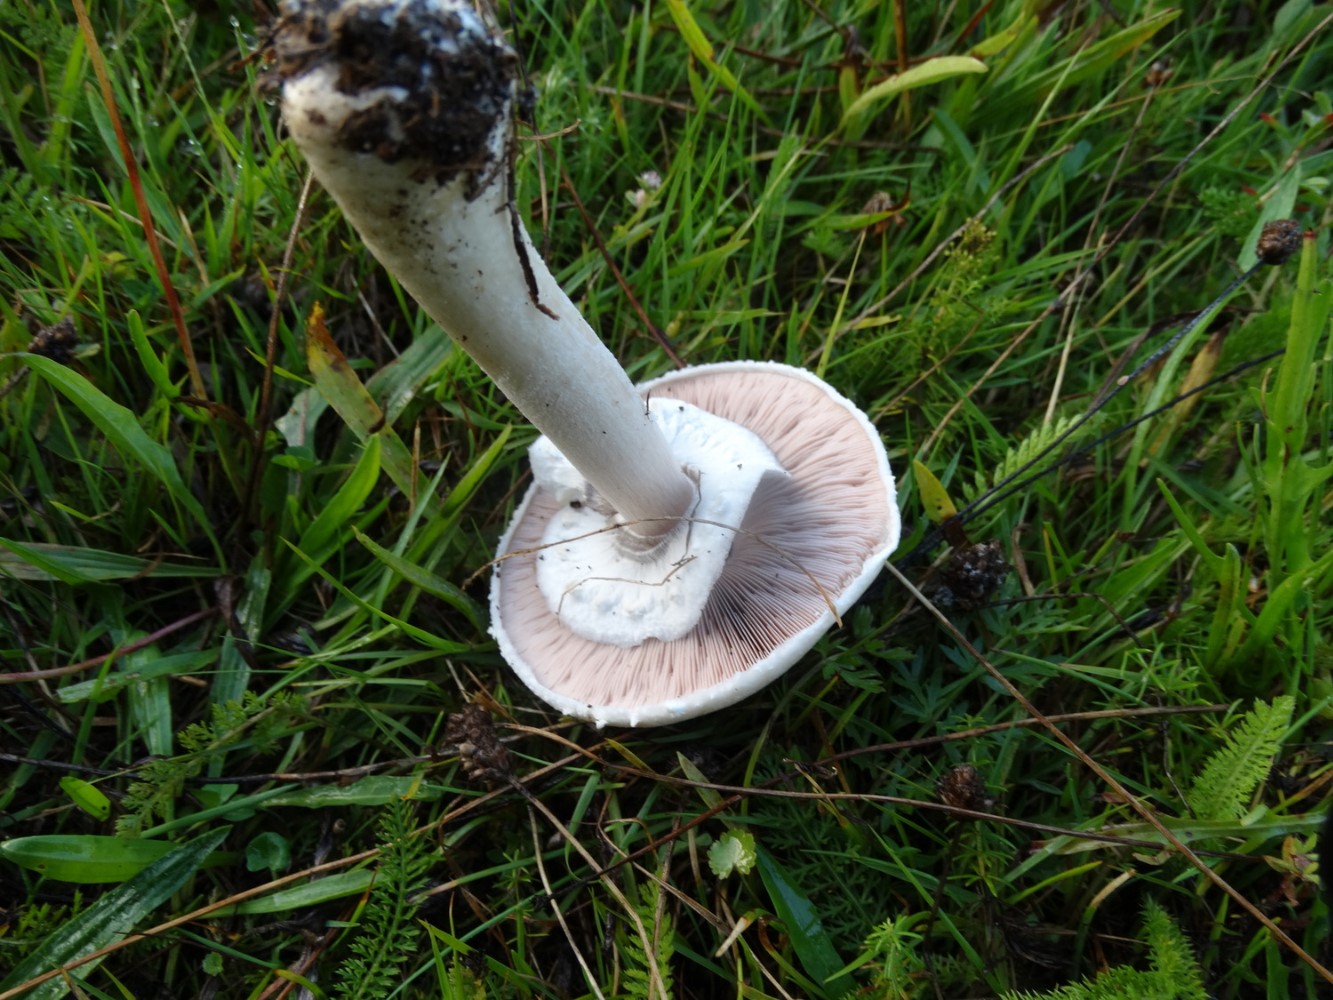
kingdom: Fungi
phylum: Basidiomycota
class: Agaricomycetes
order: Agaricales
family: Agaricaceae
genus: Agaricus
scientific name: Agaricus arvensis
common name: ager-champignon
